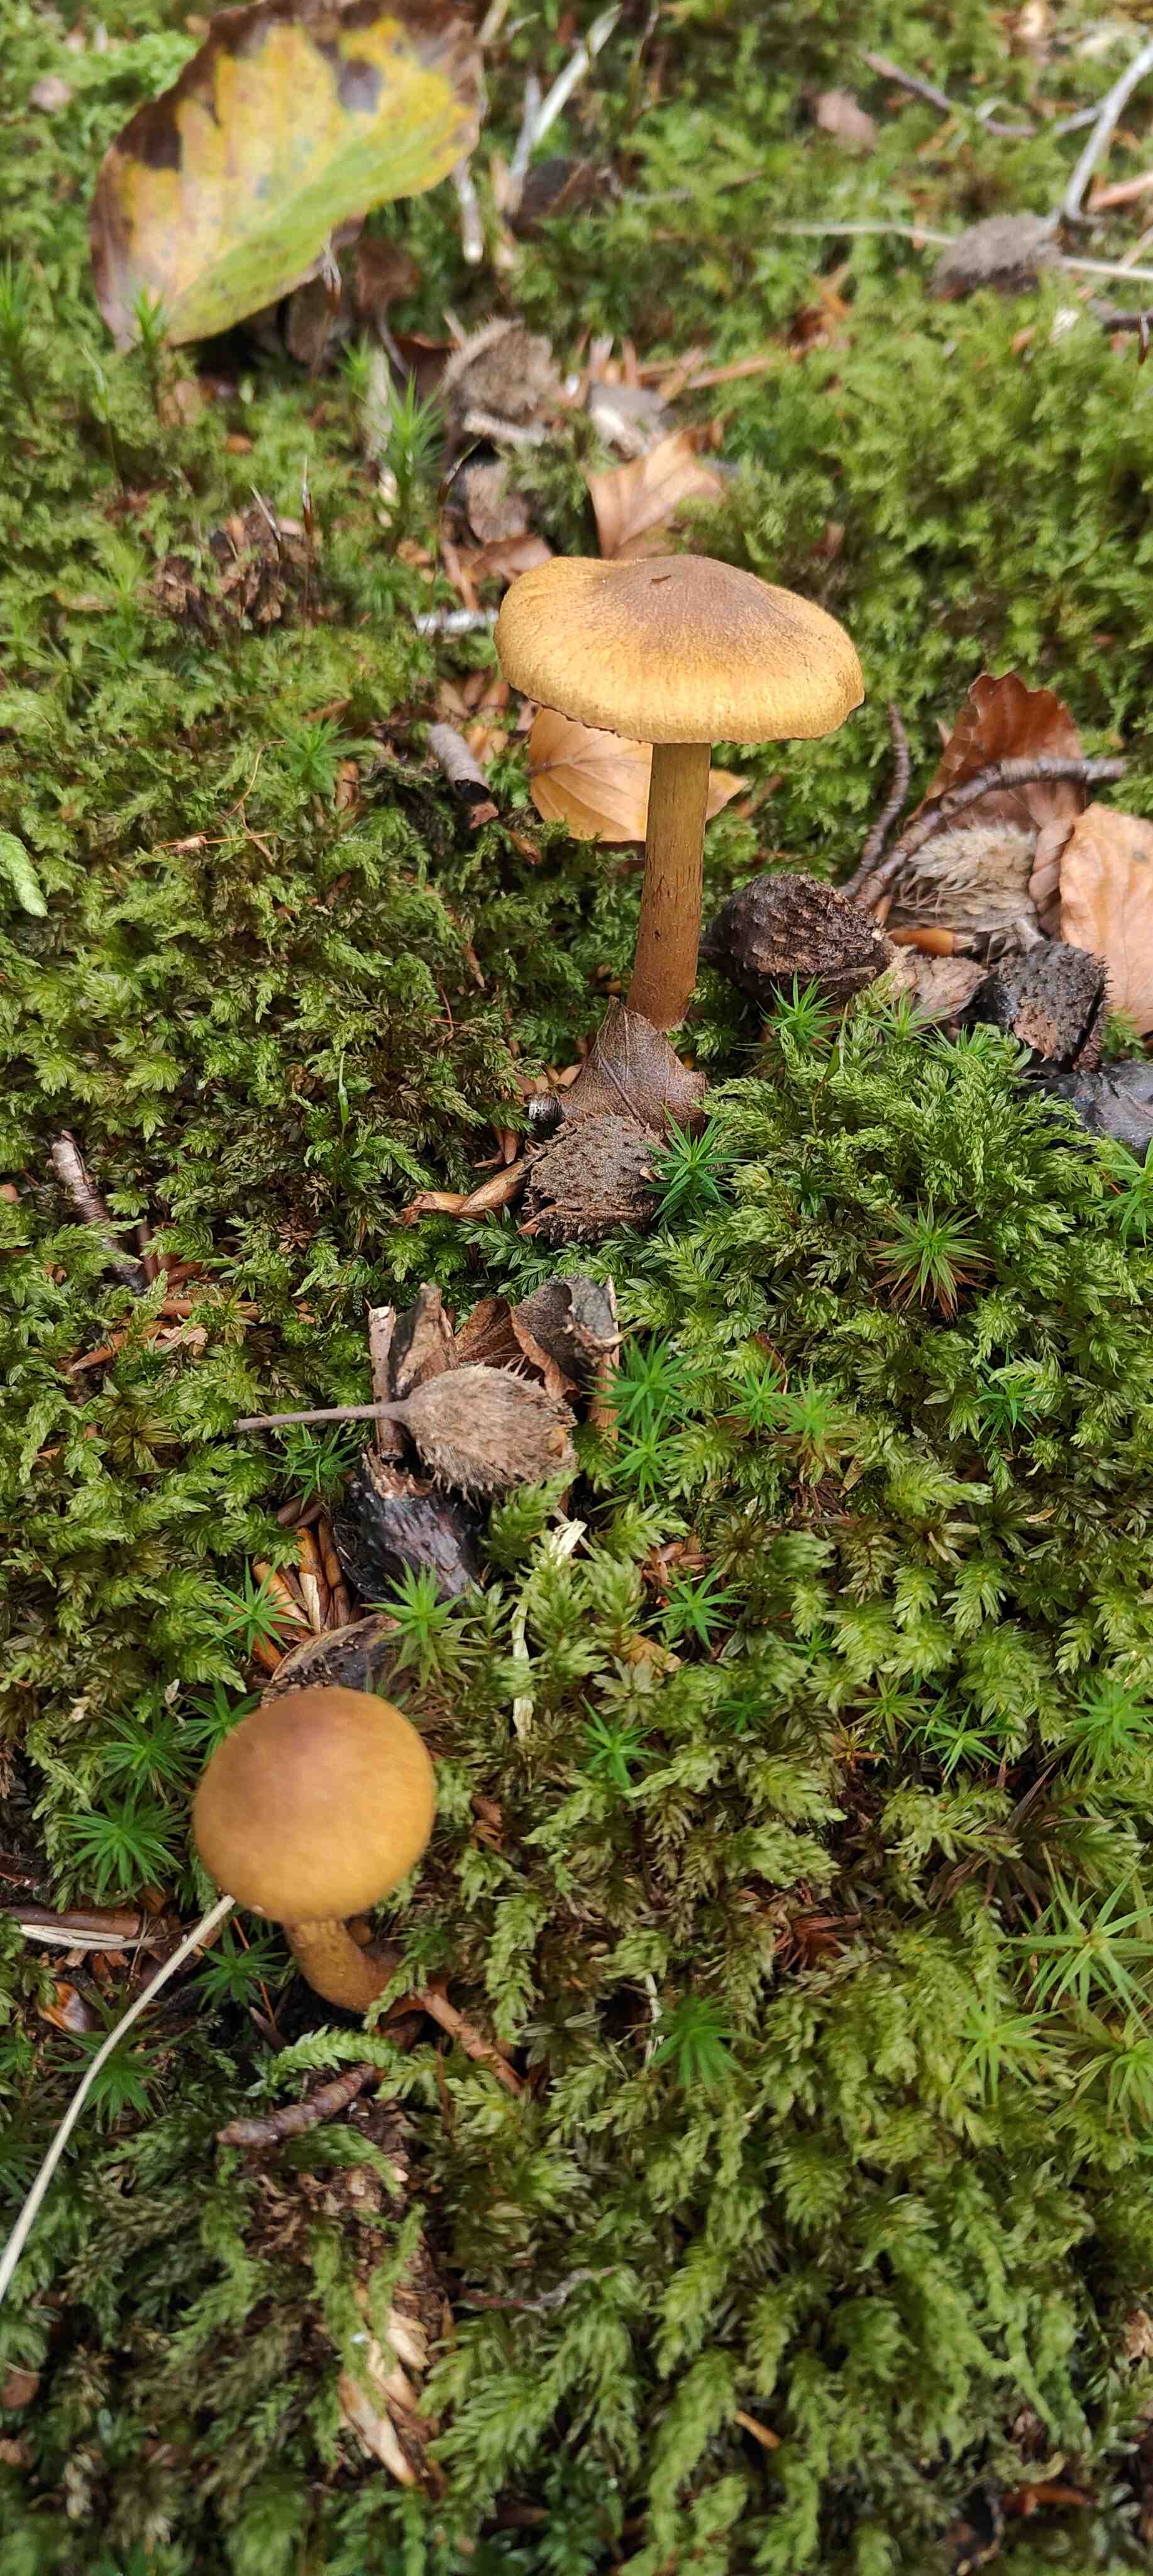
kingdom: Fungi
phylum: Basidiomycota
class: Agaricomycetes
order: Agaricales
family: Cortinariaceae
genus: Cortinarius
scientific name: Cortinarius
